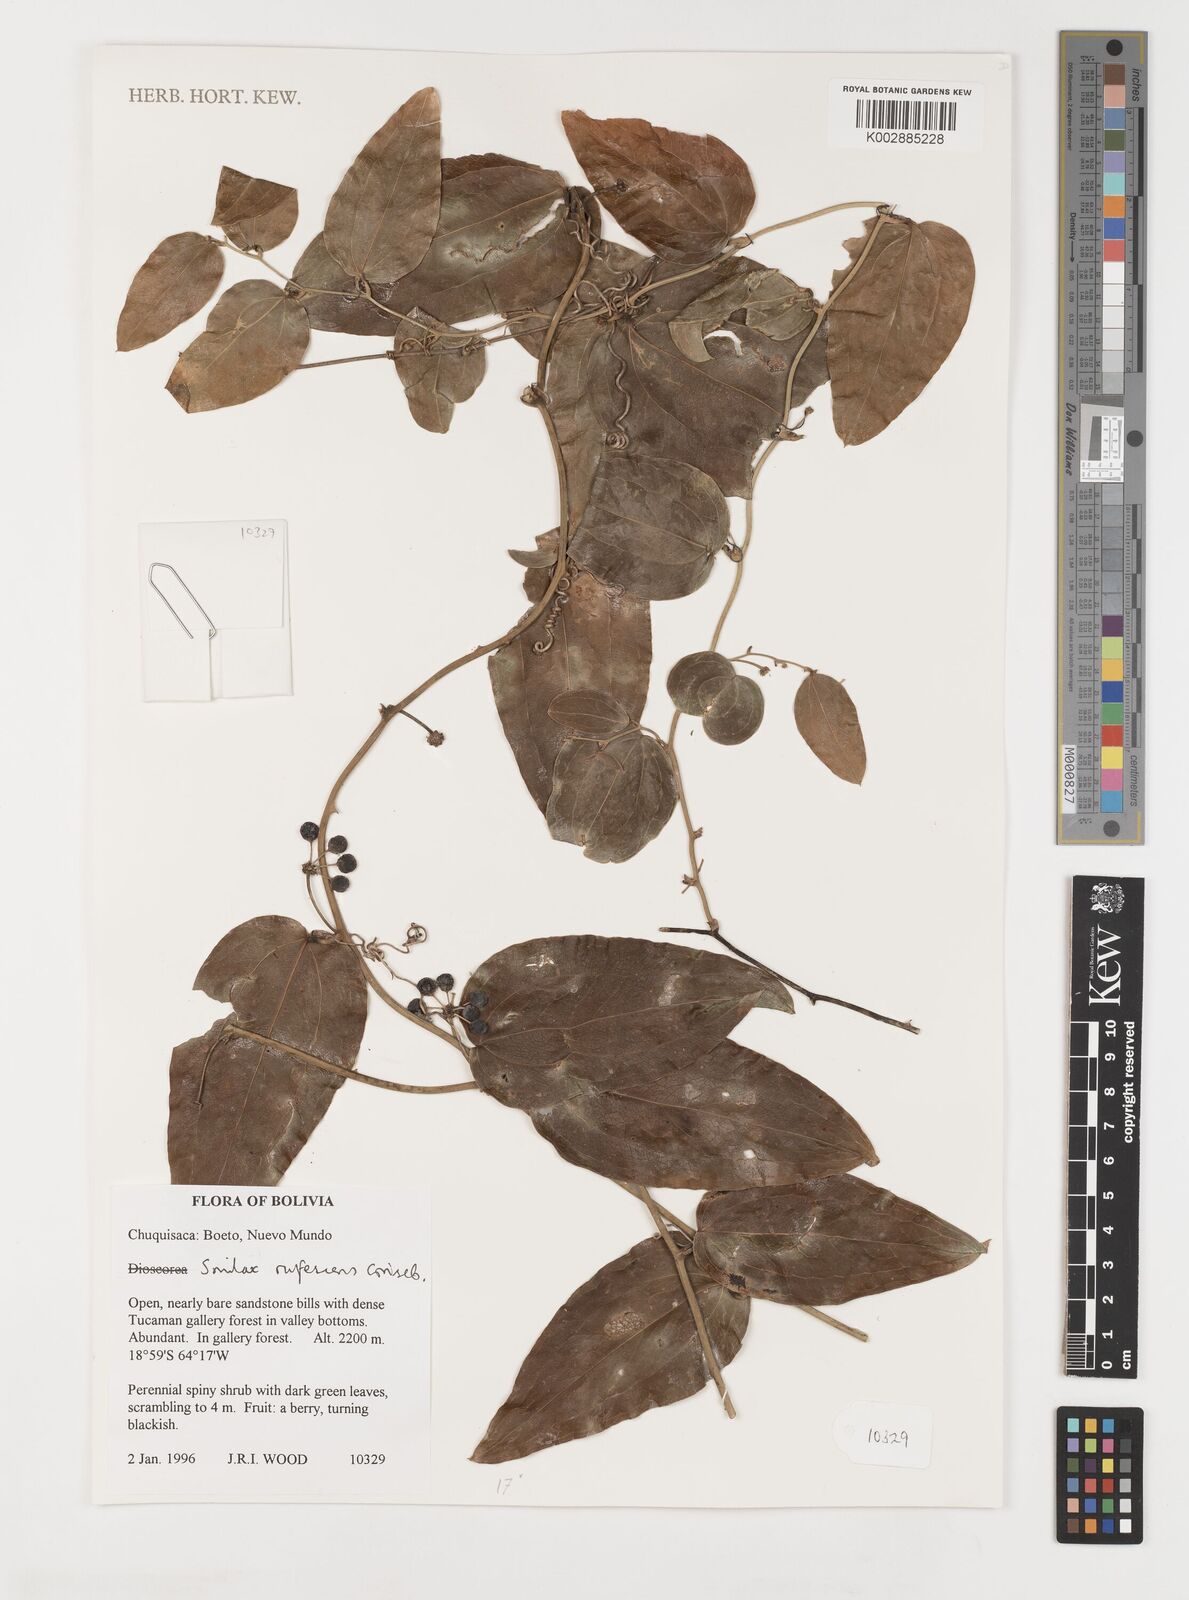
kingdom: Plantae
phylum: Tracheophyta
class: Liliopsida
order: Liliales
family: Smilacaceae
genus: Smilax
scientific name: Smilax rufescens
